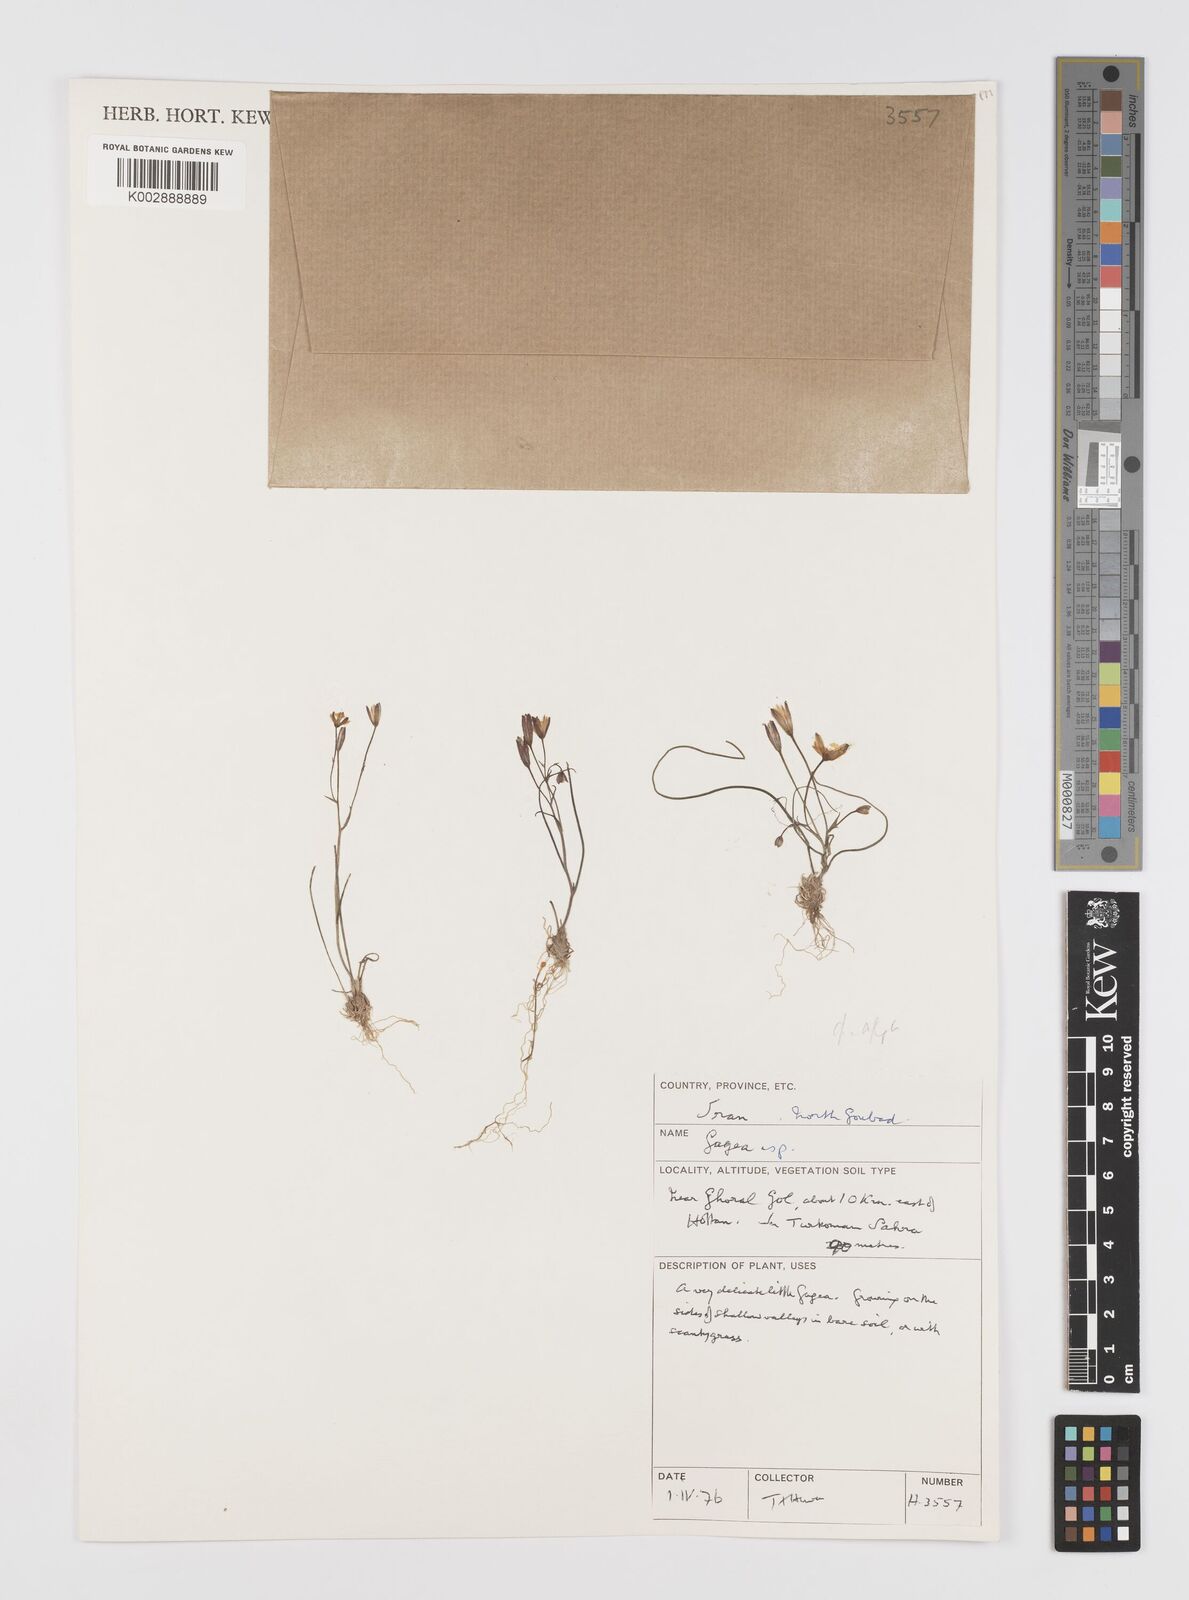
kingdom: Plantae
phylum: Tracheophyta
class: Liliopsida
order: Liliales
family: Liliaceae
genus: Gagea
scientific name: Gagea
